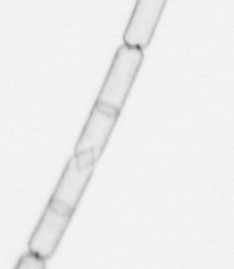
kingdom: Chromista
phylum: Ochrophyta
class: Bacillariophyceae
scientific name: Bacillariophyceae
